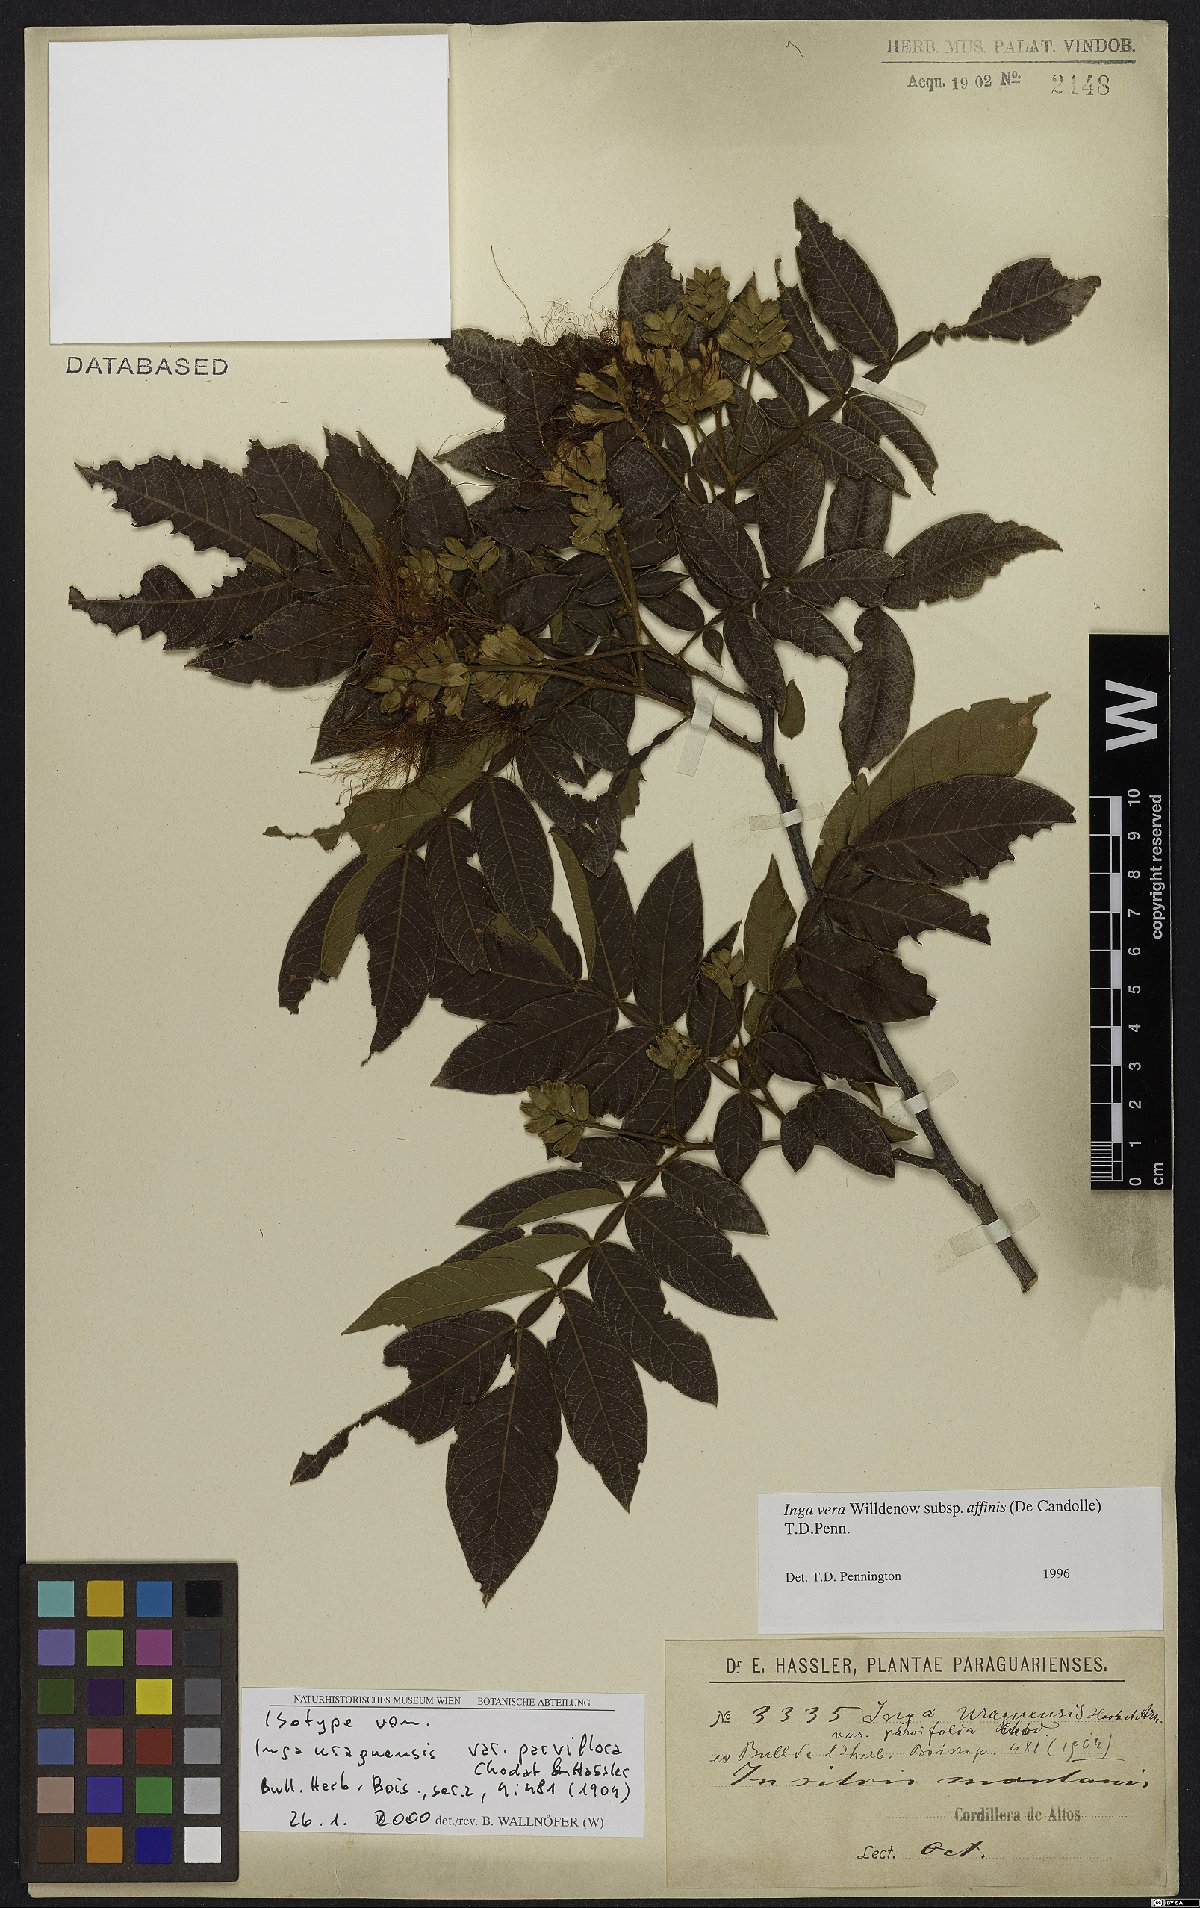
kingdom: Plantae
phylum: Tracheophyta
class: Magnoliopsida
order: Fabales
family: Fabaceae
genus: Inga
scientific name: Inga affinis
